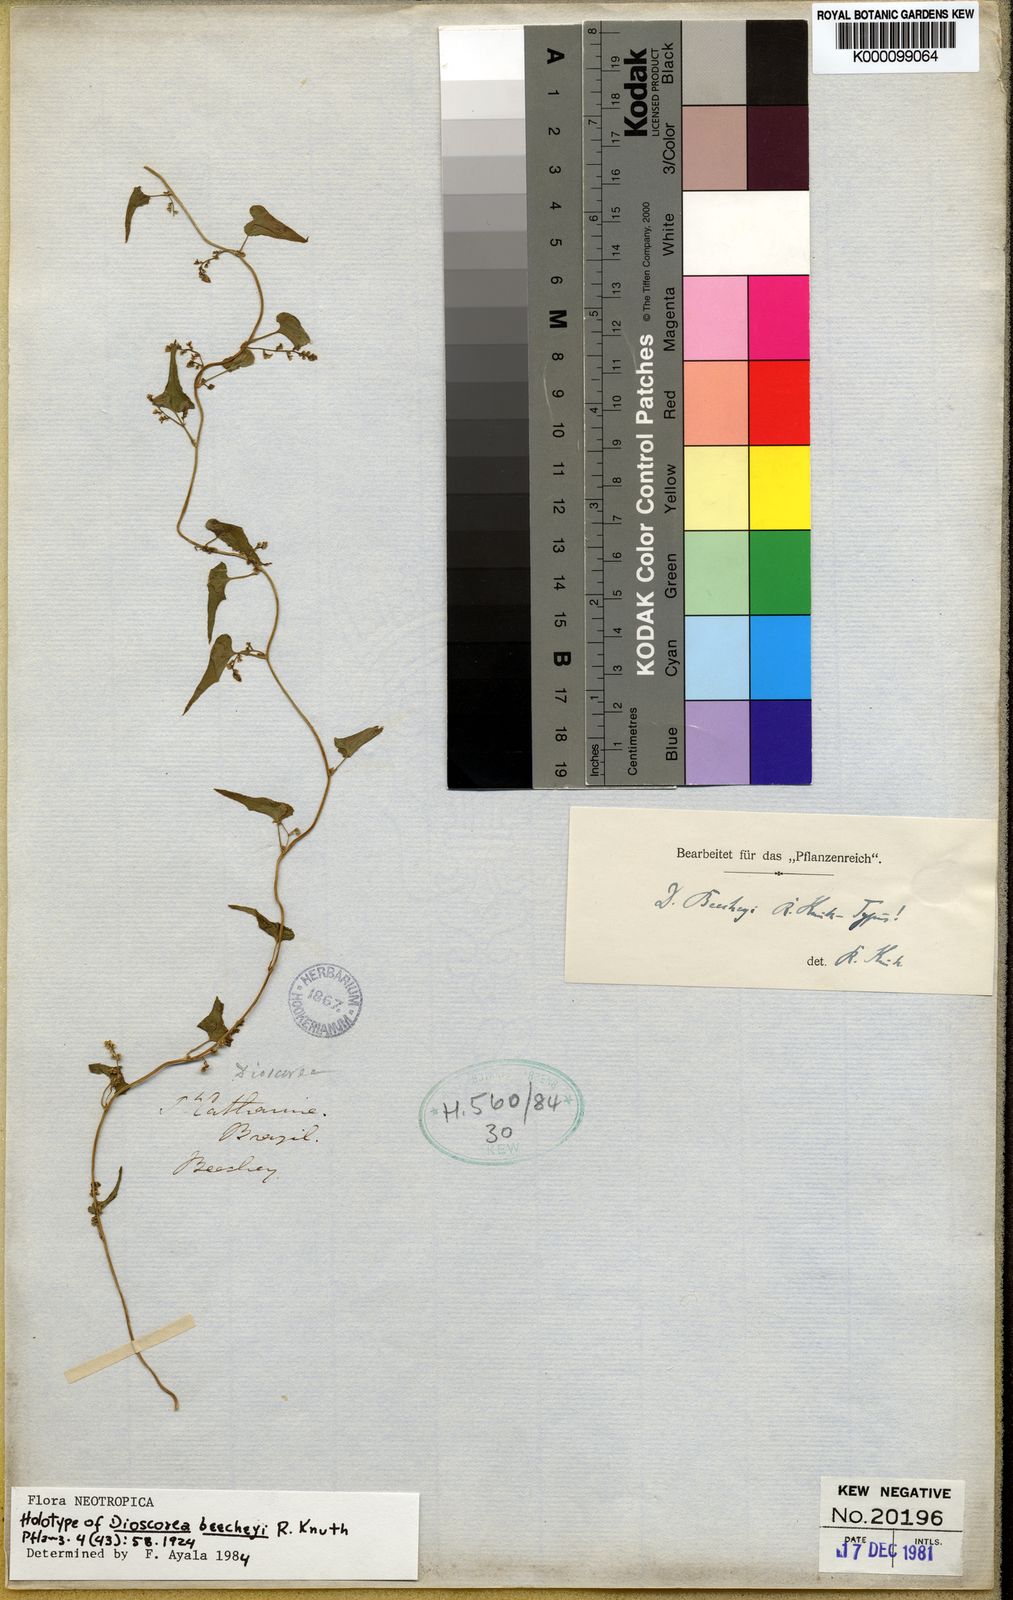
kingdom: Plantae
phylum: Tracheophyta
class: Liliopsida
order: Dioscoreales
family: Dioscoreaceae
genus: Dioscorea
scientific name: Dioscorea beecheyi
